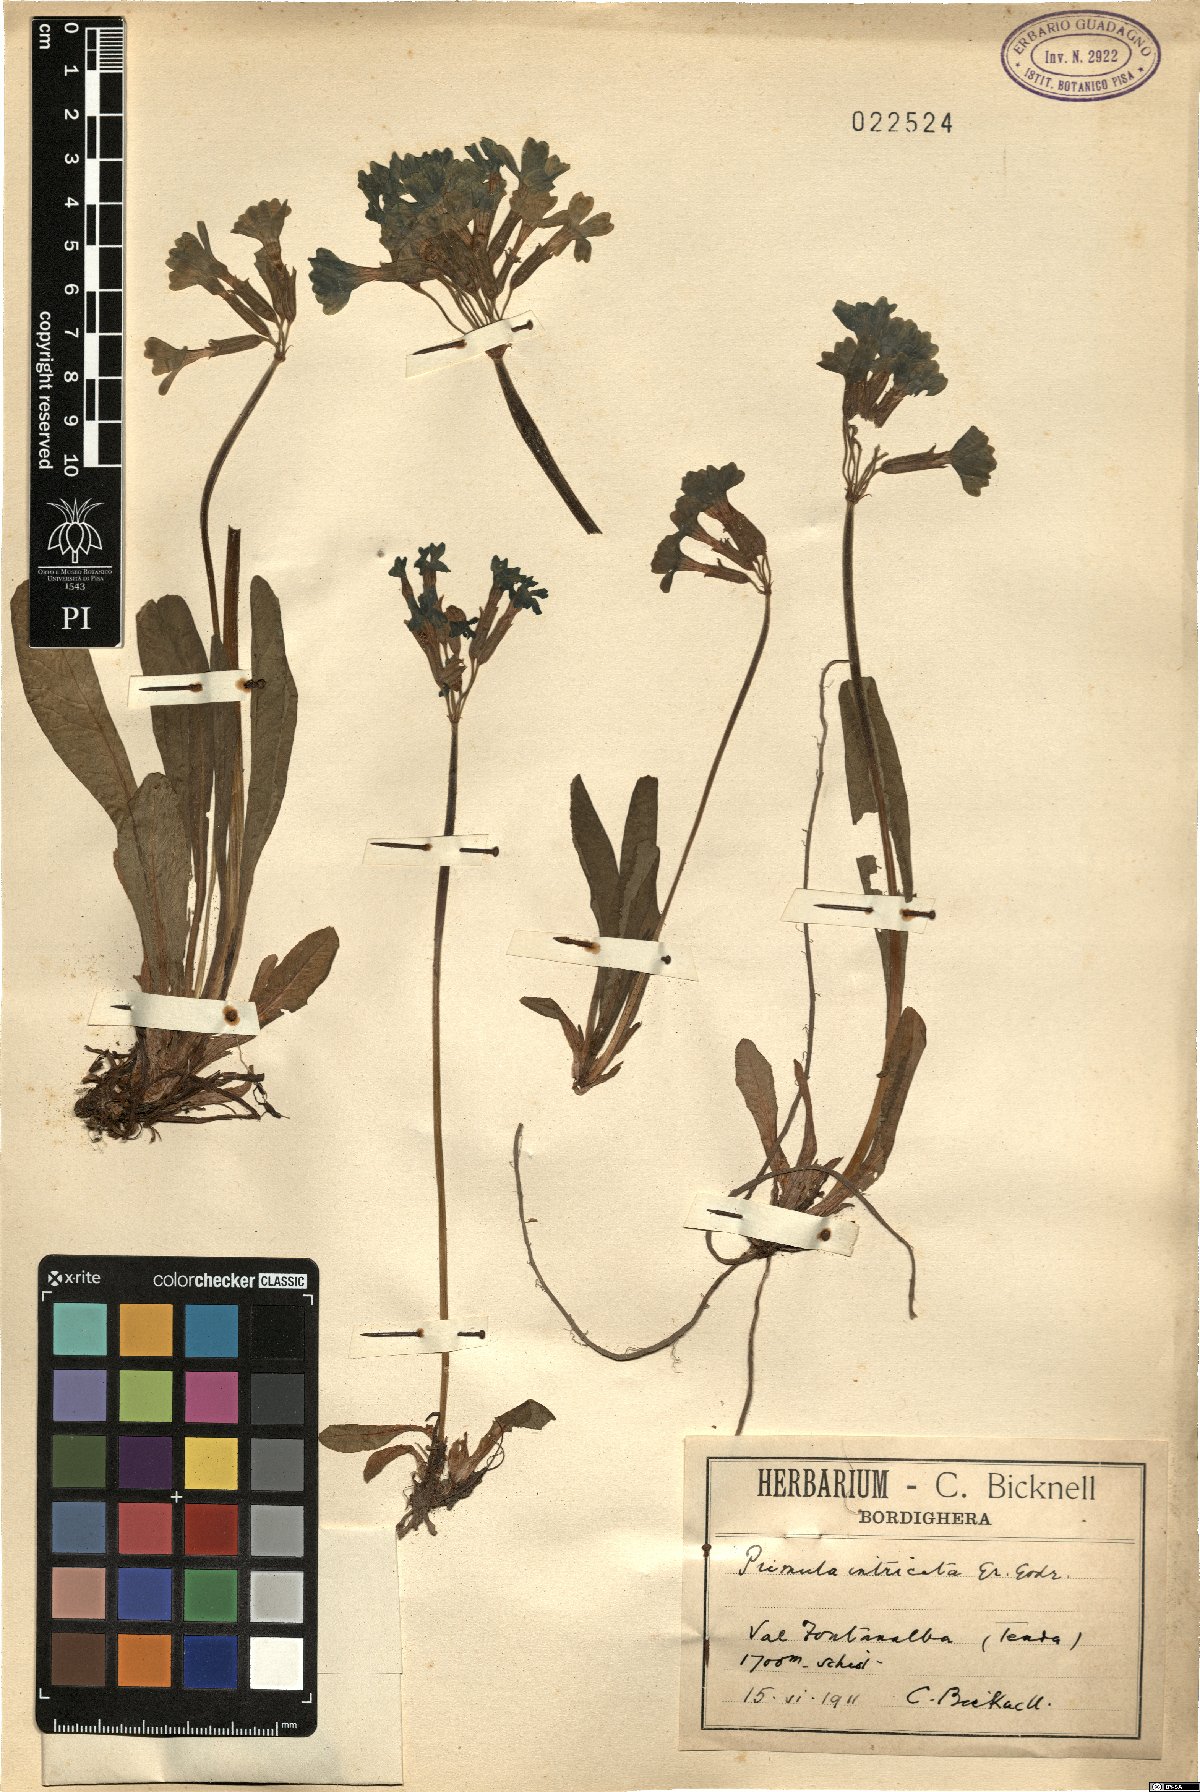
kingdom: Plantae
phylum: Tracheophyta
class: Magnoliopsida
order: Ericales
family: Primulaceae
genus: Primula
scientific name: Primula intricata
